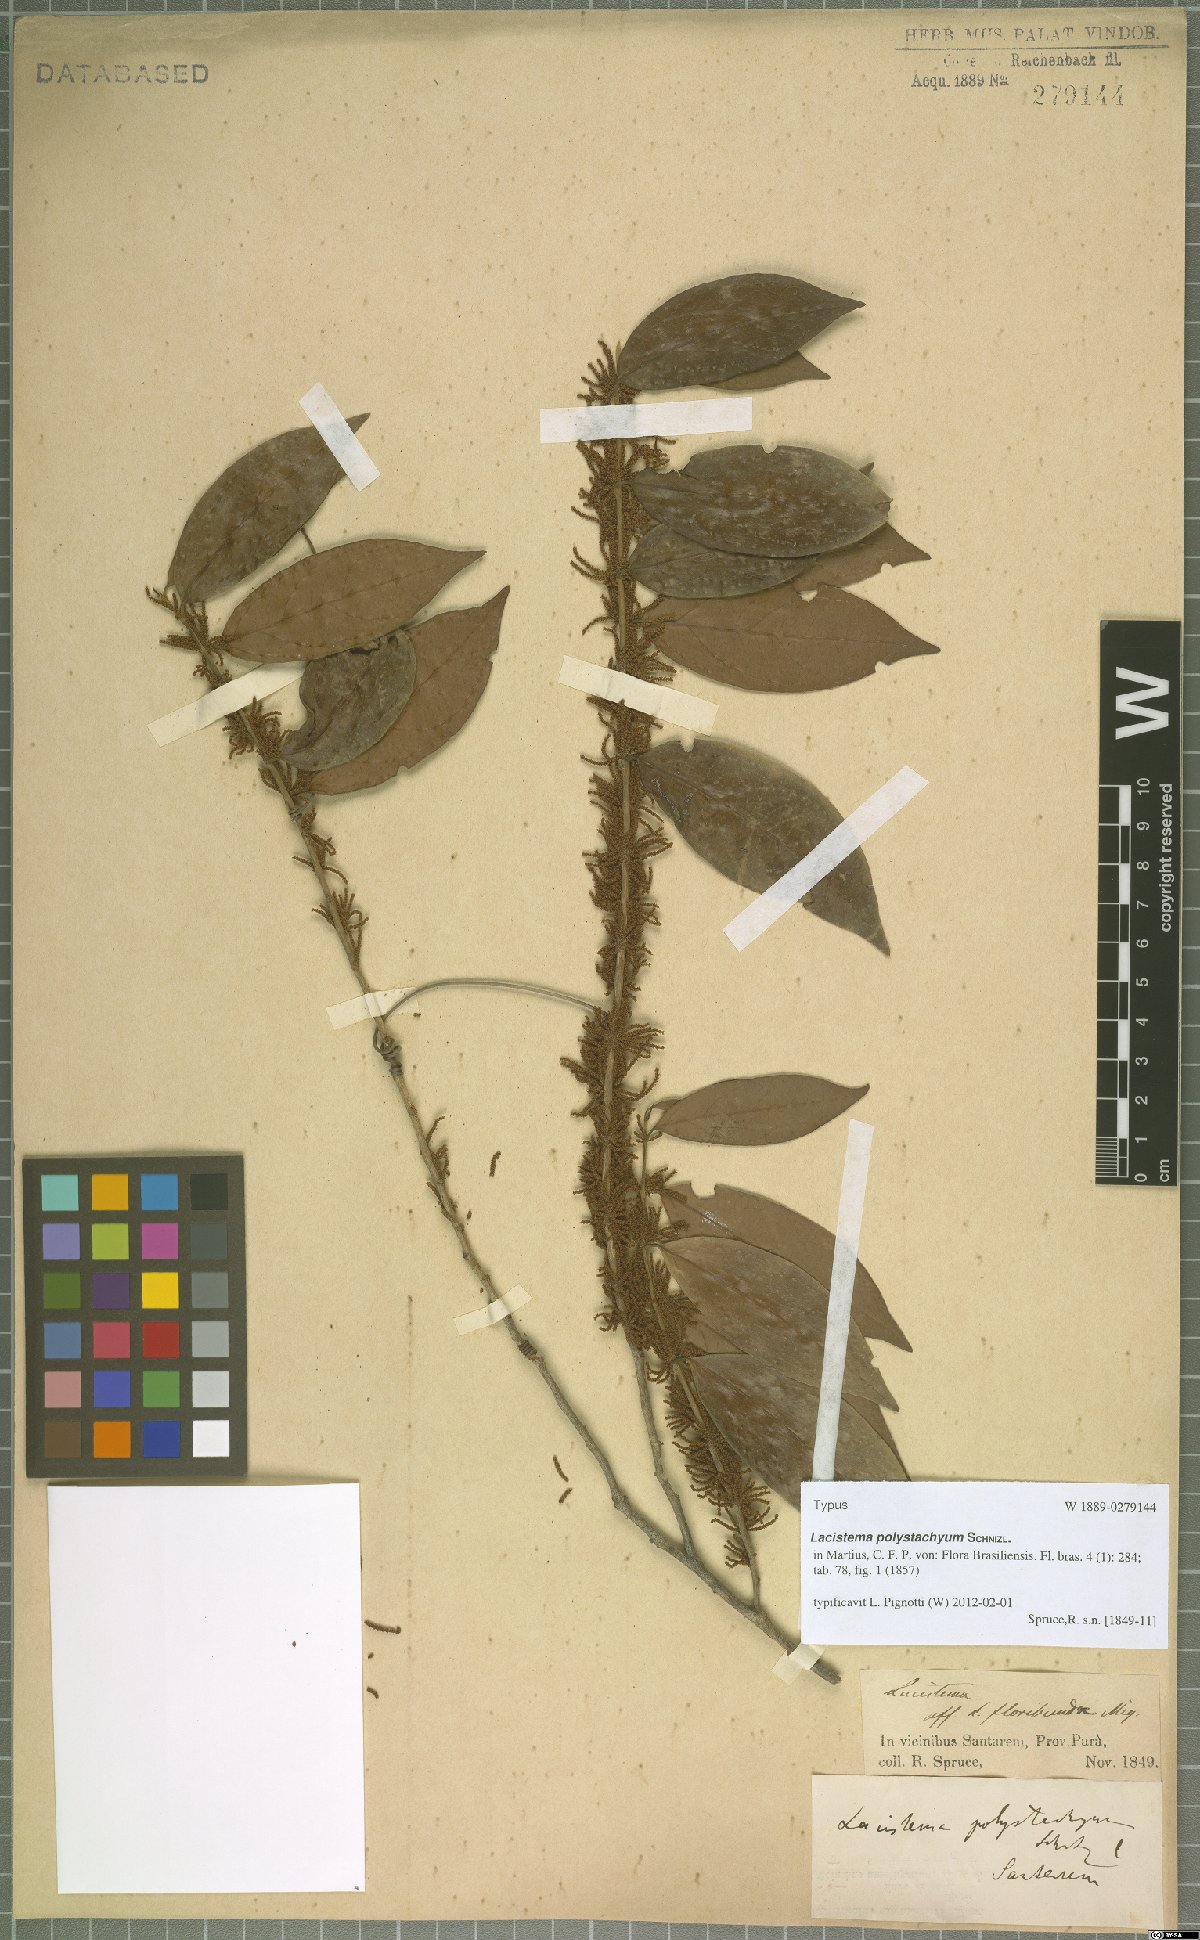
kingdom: Plantae
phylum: Tracheophyta
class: Magnoliopsida
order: Malpighiales
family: Lacistemataceae
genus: Lacistema
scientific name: Lacistema polystachyum
